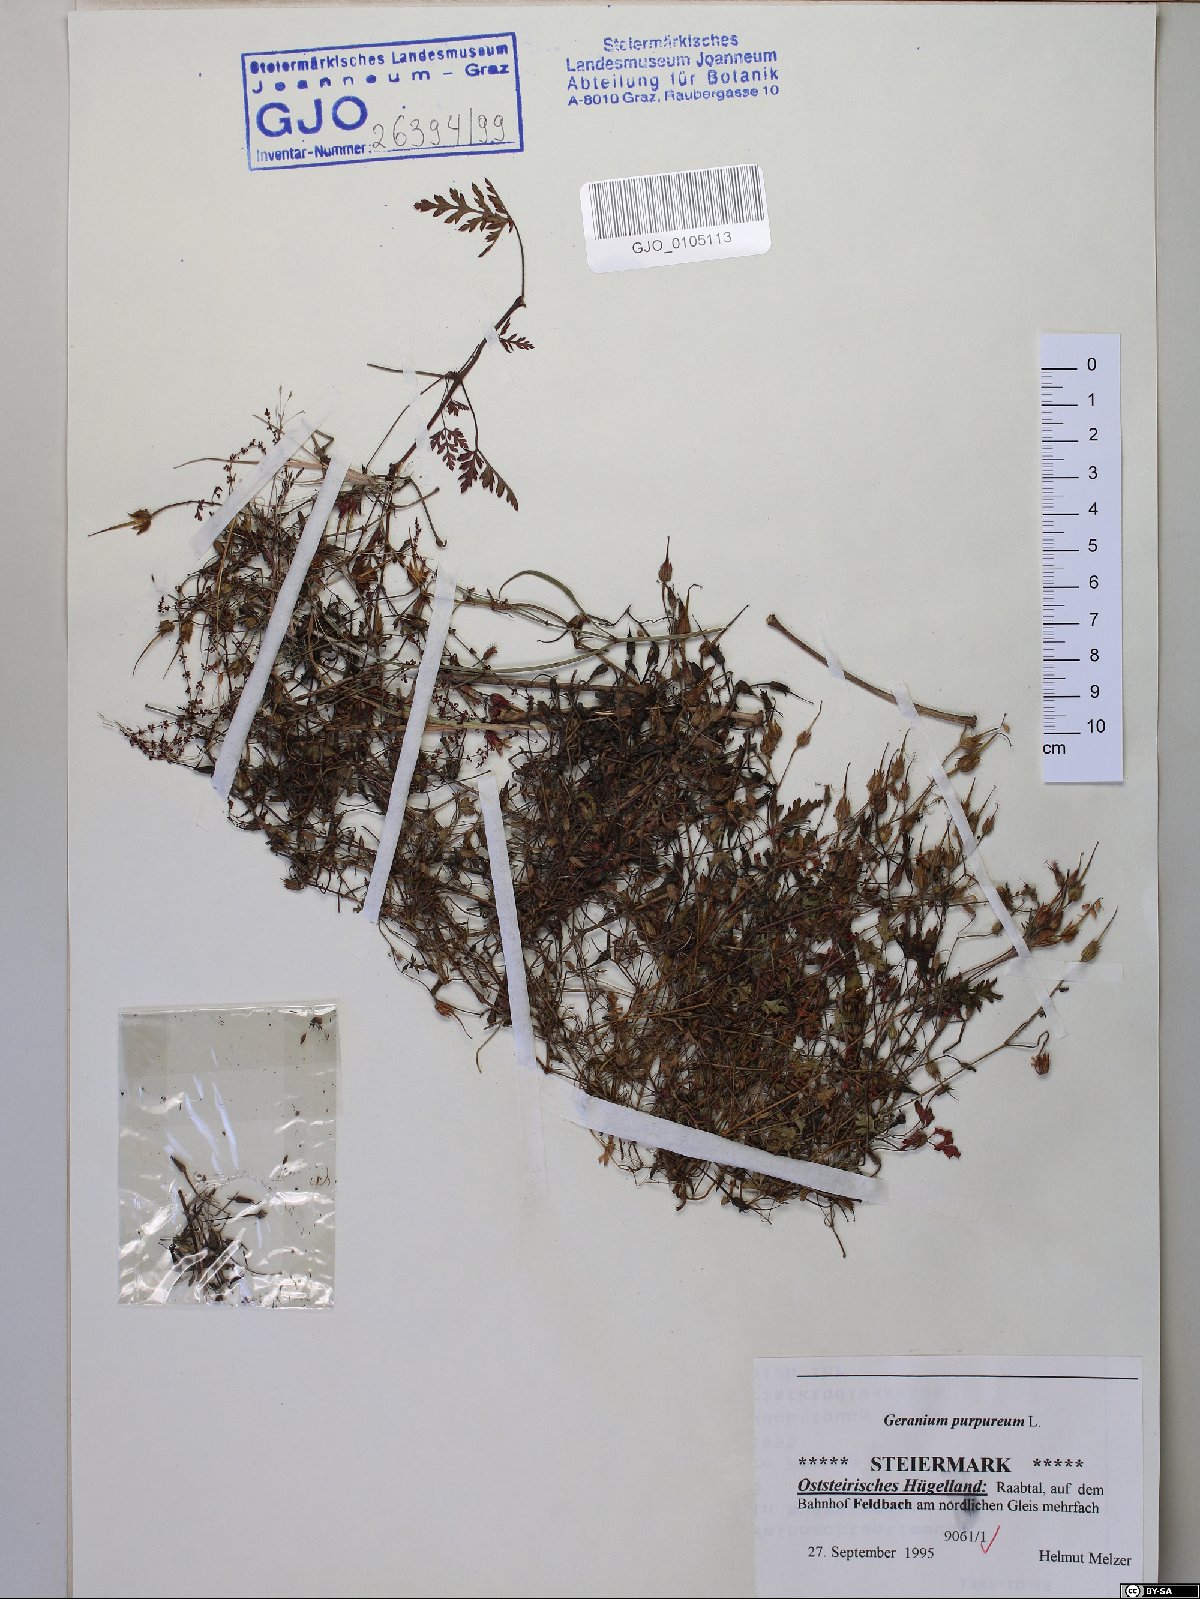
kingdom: Plantae
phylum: Tracheophyta
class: Magnoliopsida
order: Geraniales
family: Geraniaceae
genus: Geranium
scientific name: Geranium purpureum
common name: Little-robin
